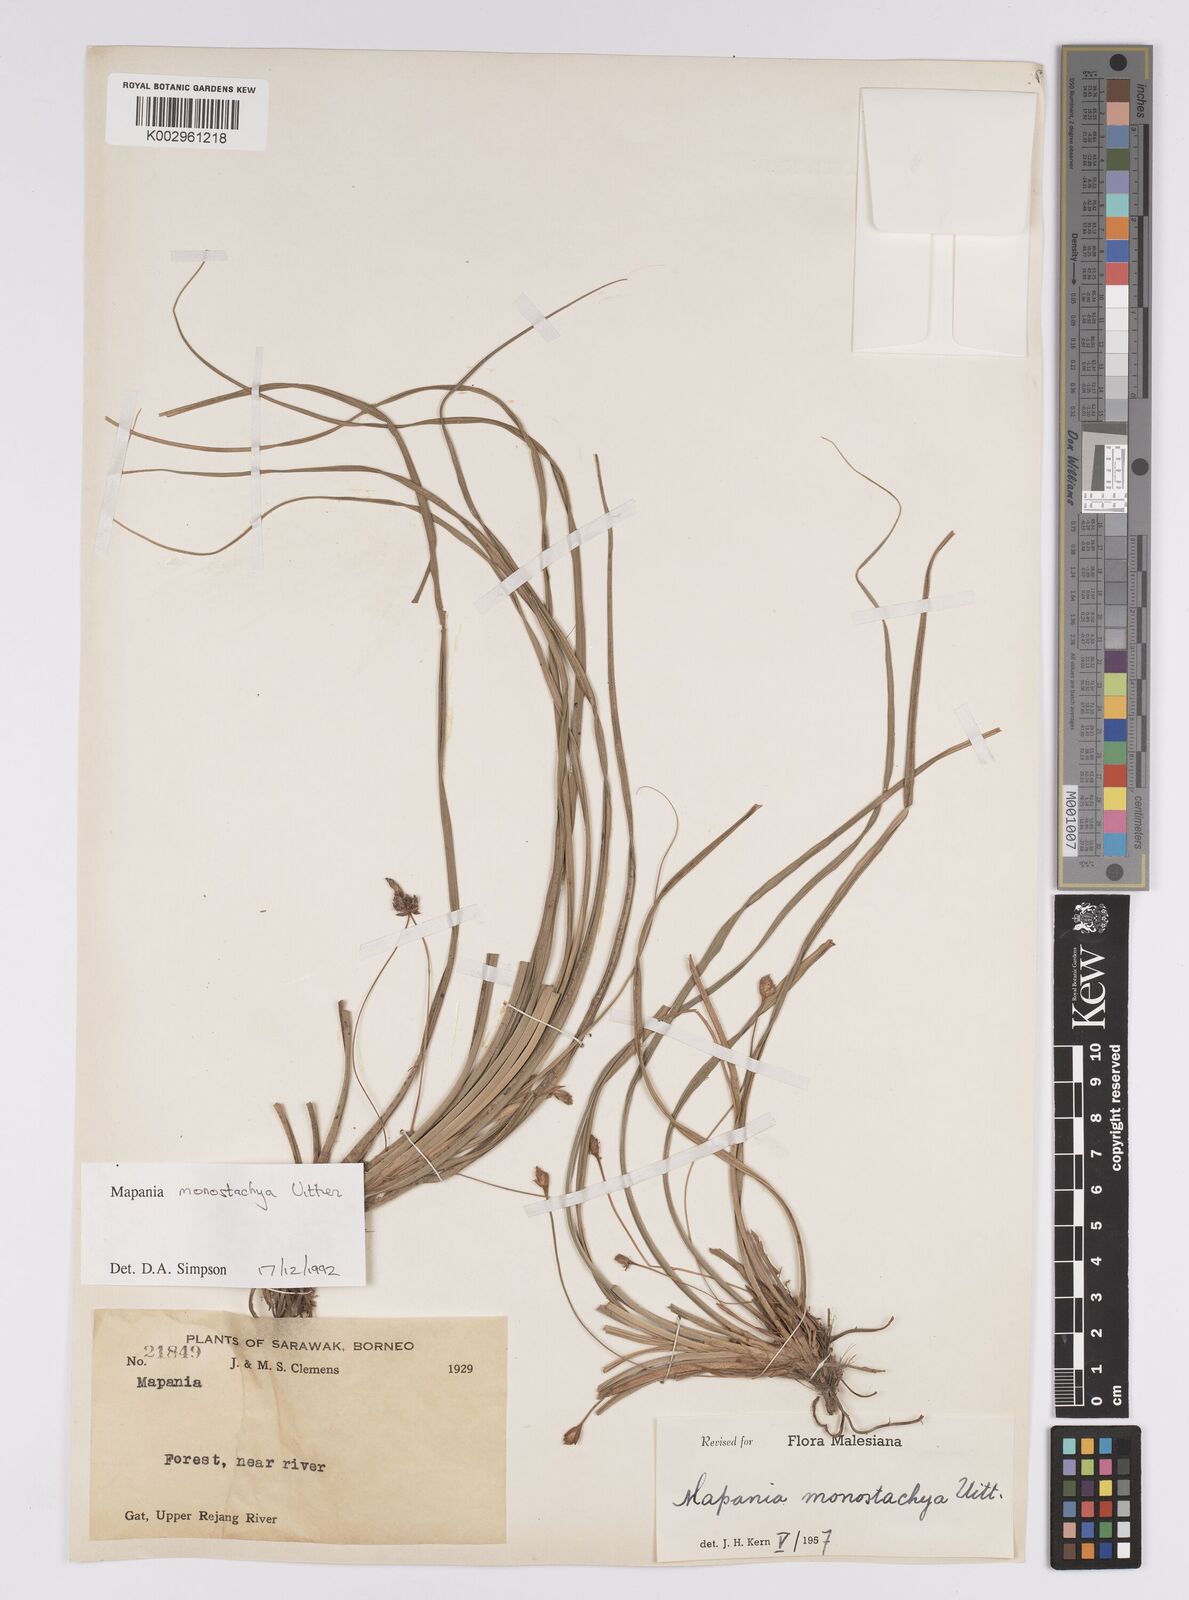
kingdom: Plantae
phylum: Tracheophyta
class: Liliopsida
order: Poales
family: Cyperaceae
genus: Mapania
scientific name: Mapania monostachya
